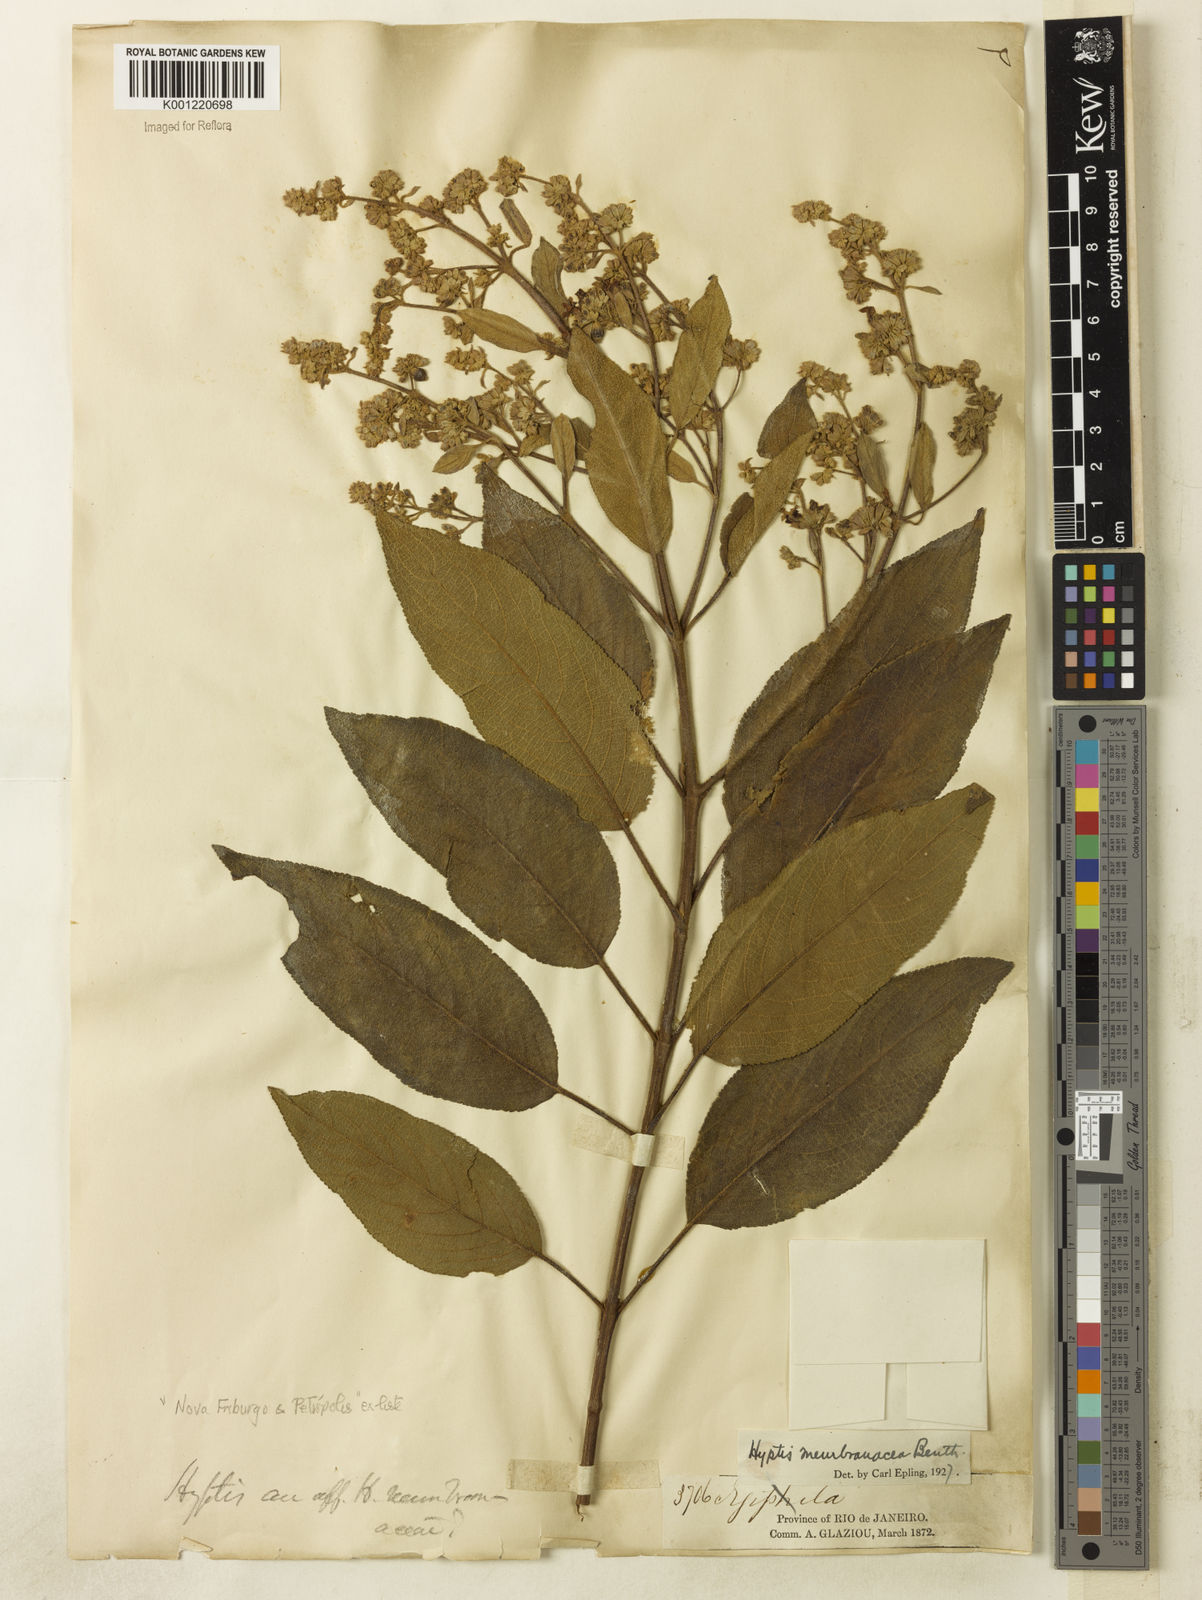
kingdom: Plantae
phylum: Tracheophyta
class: Magnoliopsida
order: Lamiales
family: Lamiaceae
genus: Hyptidendron
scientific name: Hyptidendron asperrimum
